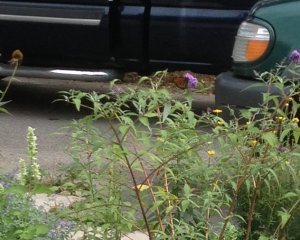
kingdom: Animalia
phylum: Arthropoda
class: Insecta
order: Lepidoptera
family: Nymphalidae
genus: Danaus
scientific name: Danaus plexippus
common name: Monarch
